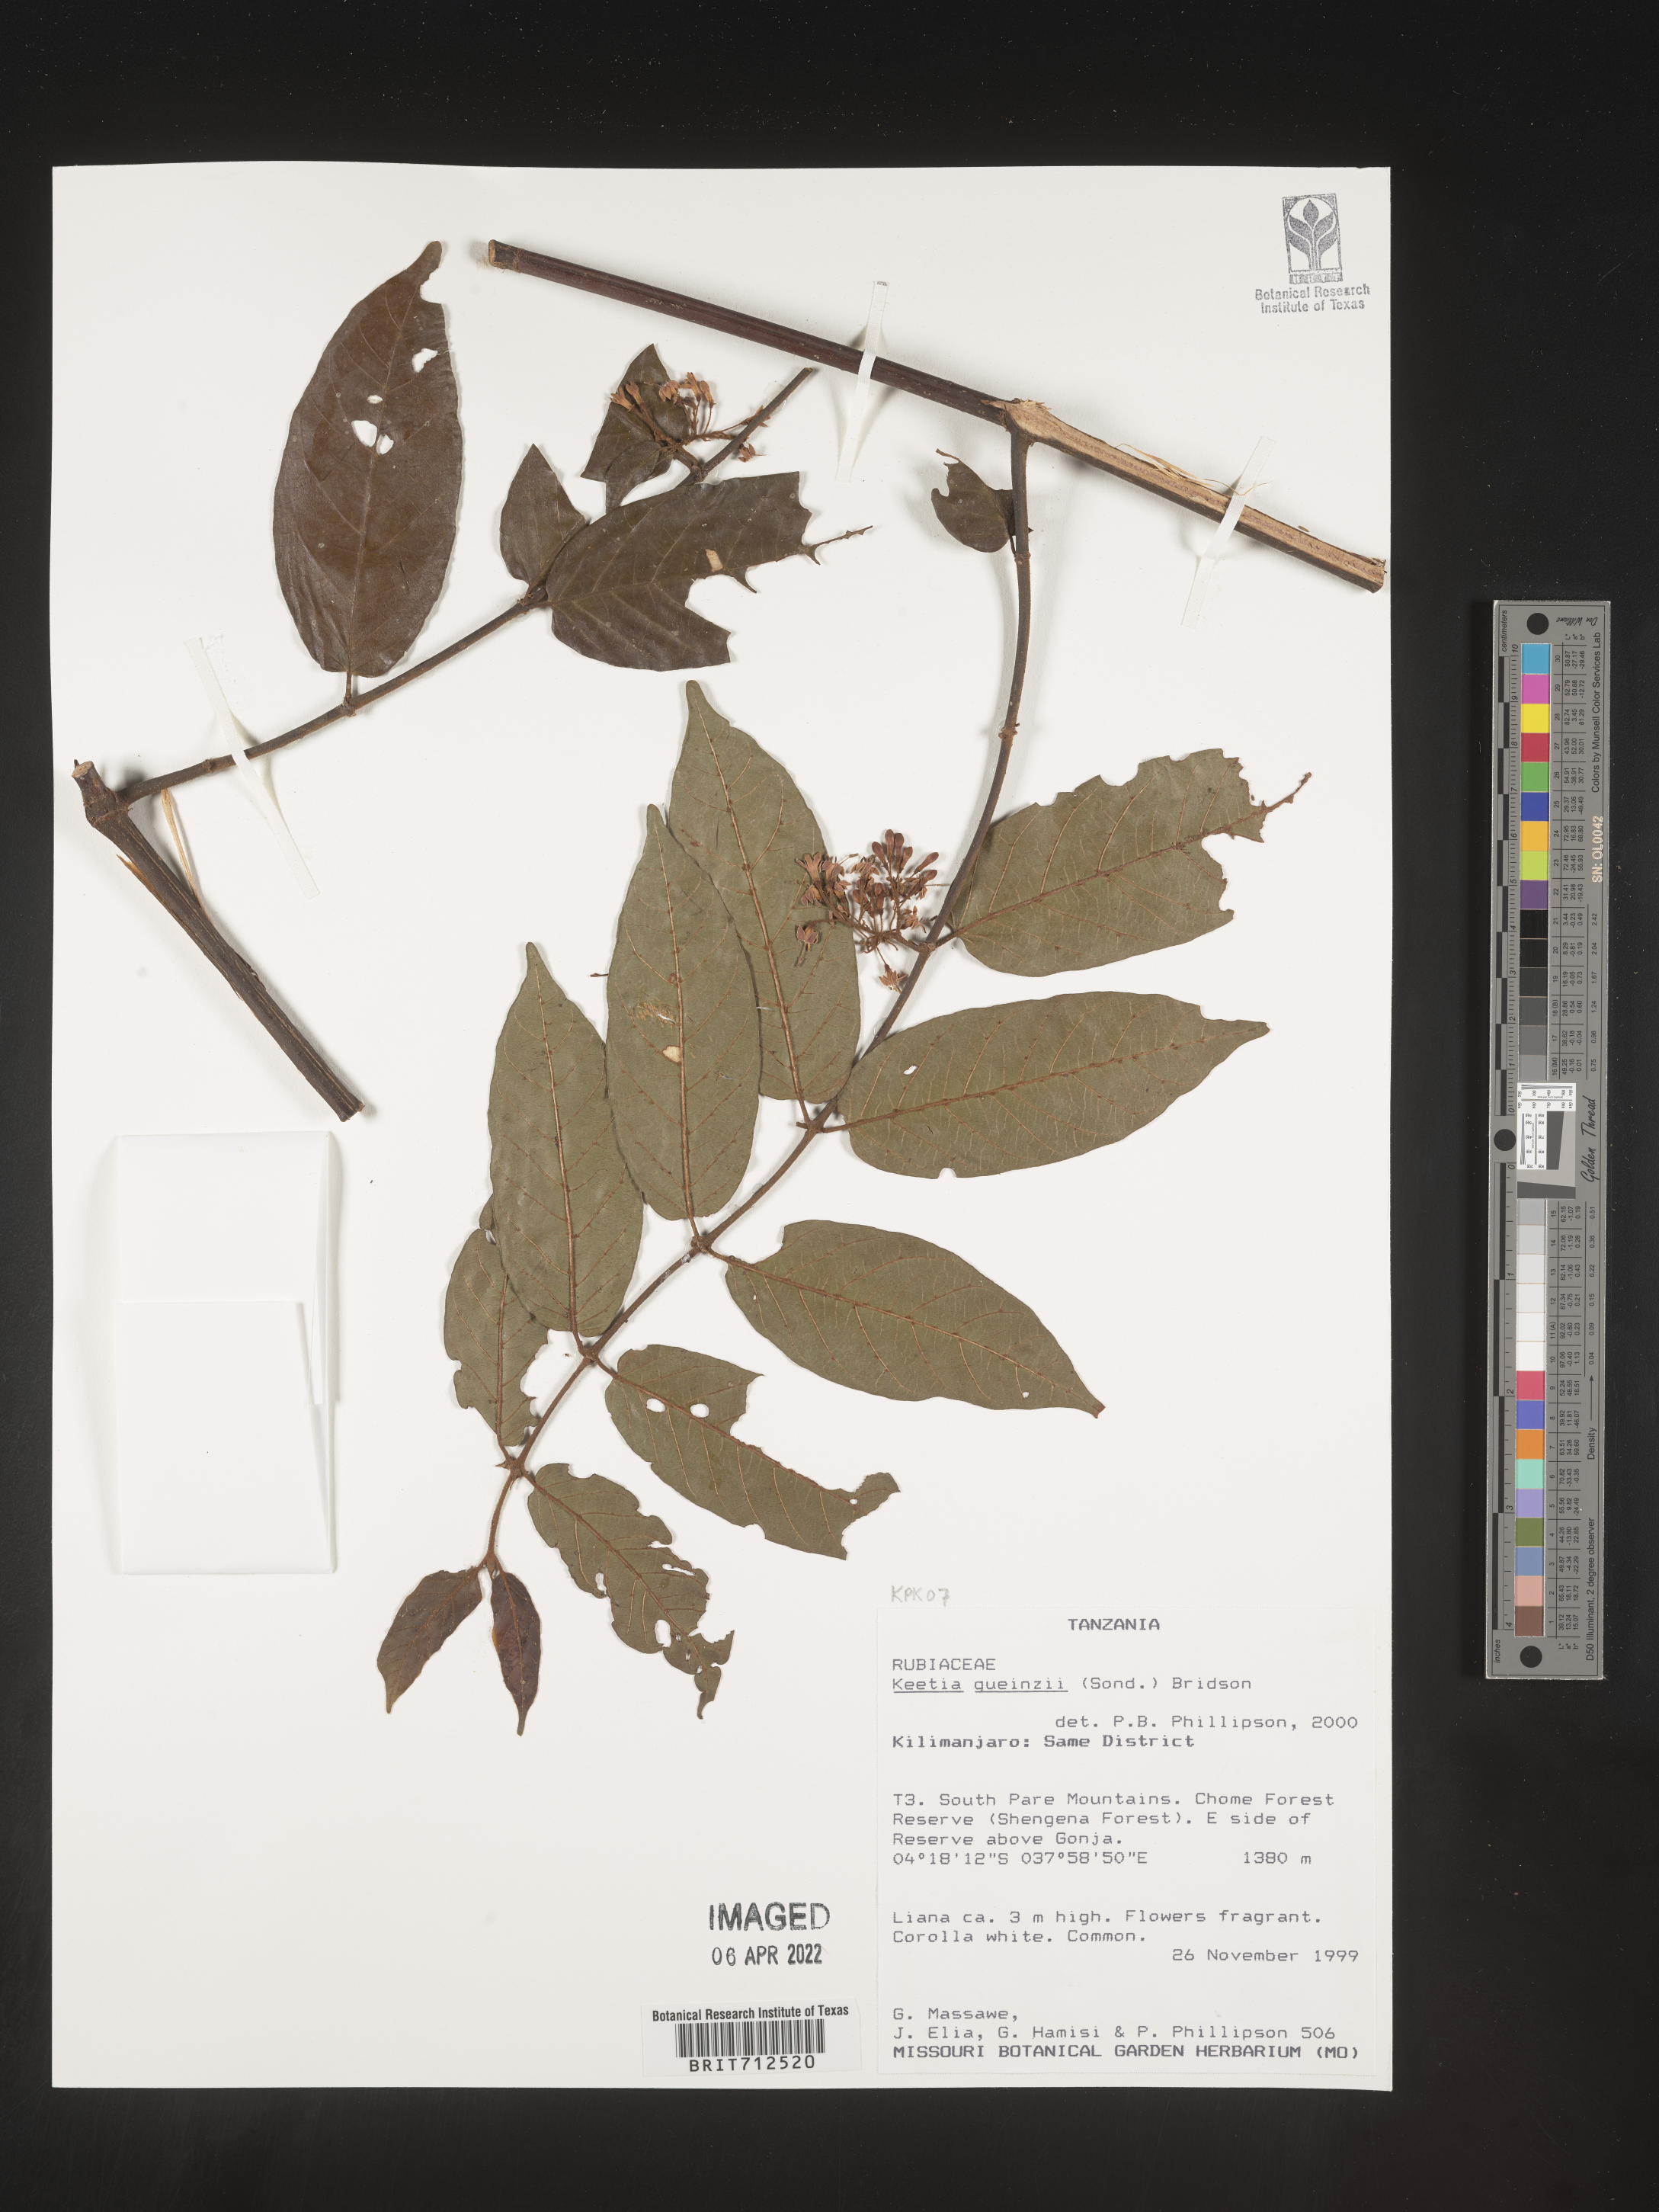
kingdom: Plantae
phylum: Tracheophyta
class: Magnoliopsida
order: Gentianales
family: Rubiaceae
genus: Keetia
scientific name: Keetia
